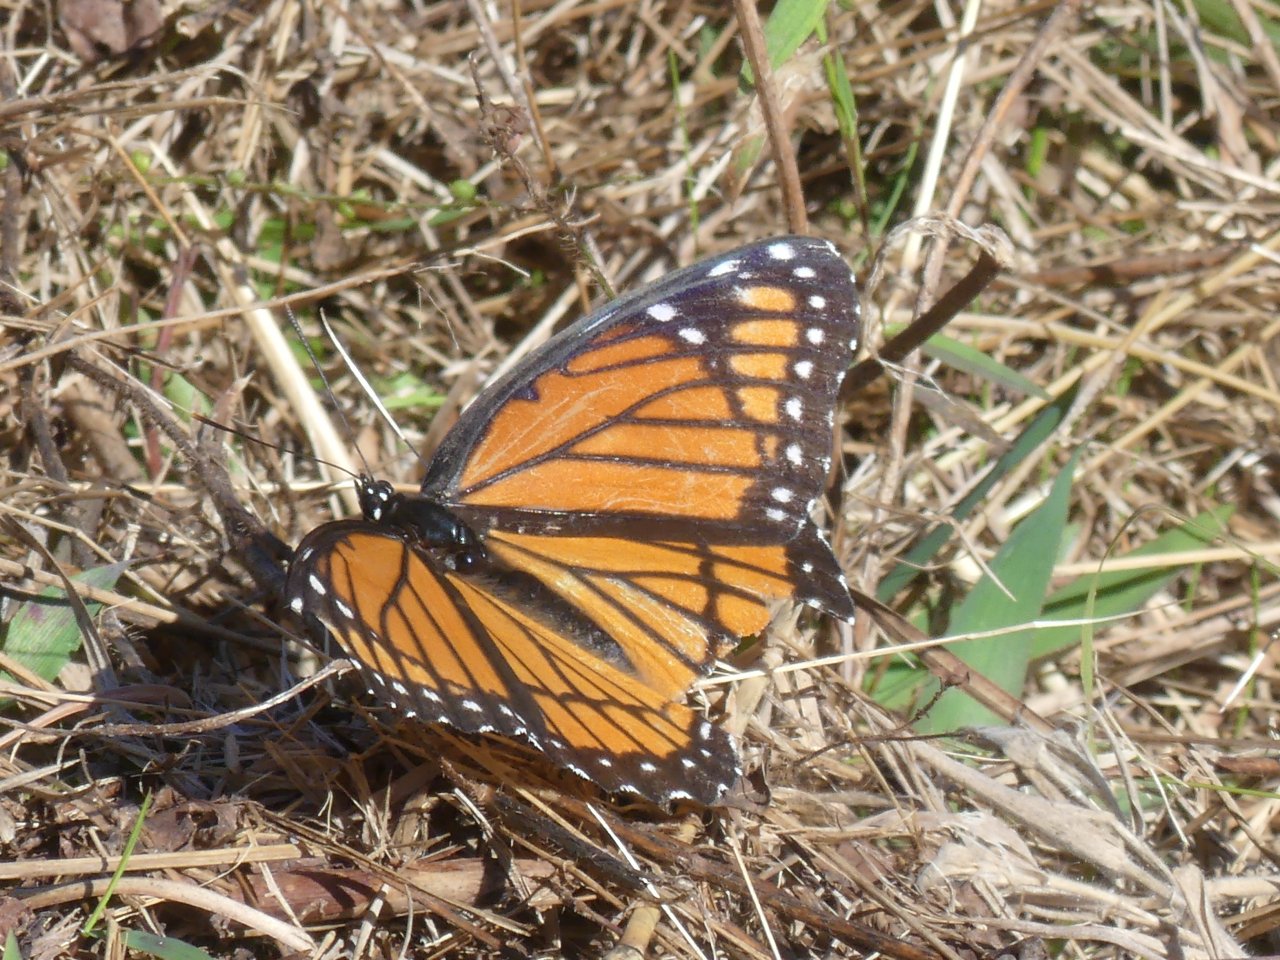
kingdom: Animalia
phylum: Arthropoda
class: Insecta
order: Lepidoptera
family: Nymphalidae
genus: Limenitis
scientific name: Limenitis archippus
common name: Viceroy
